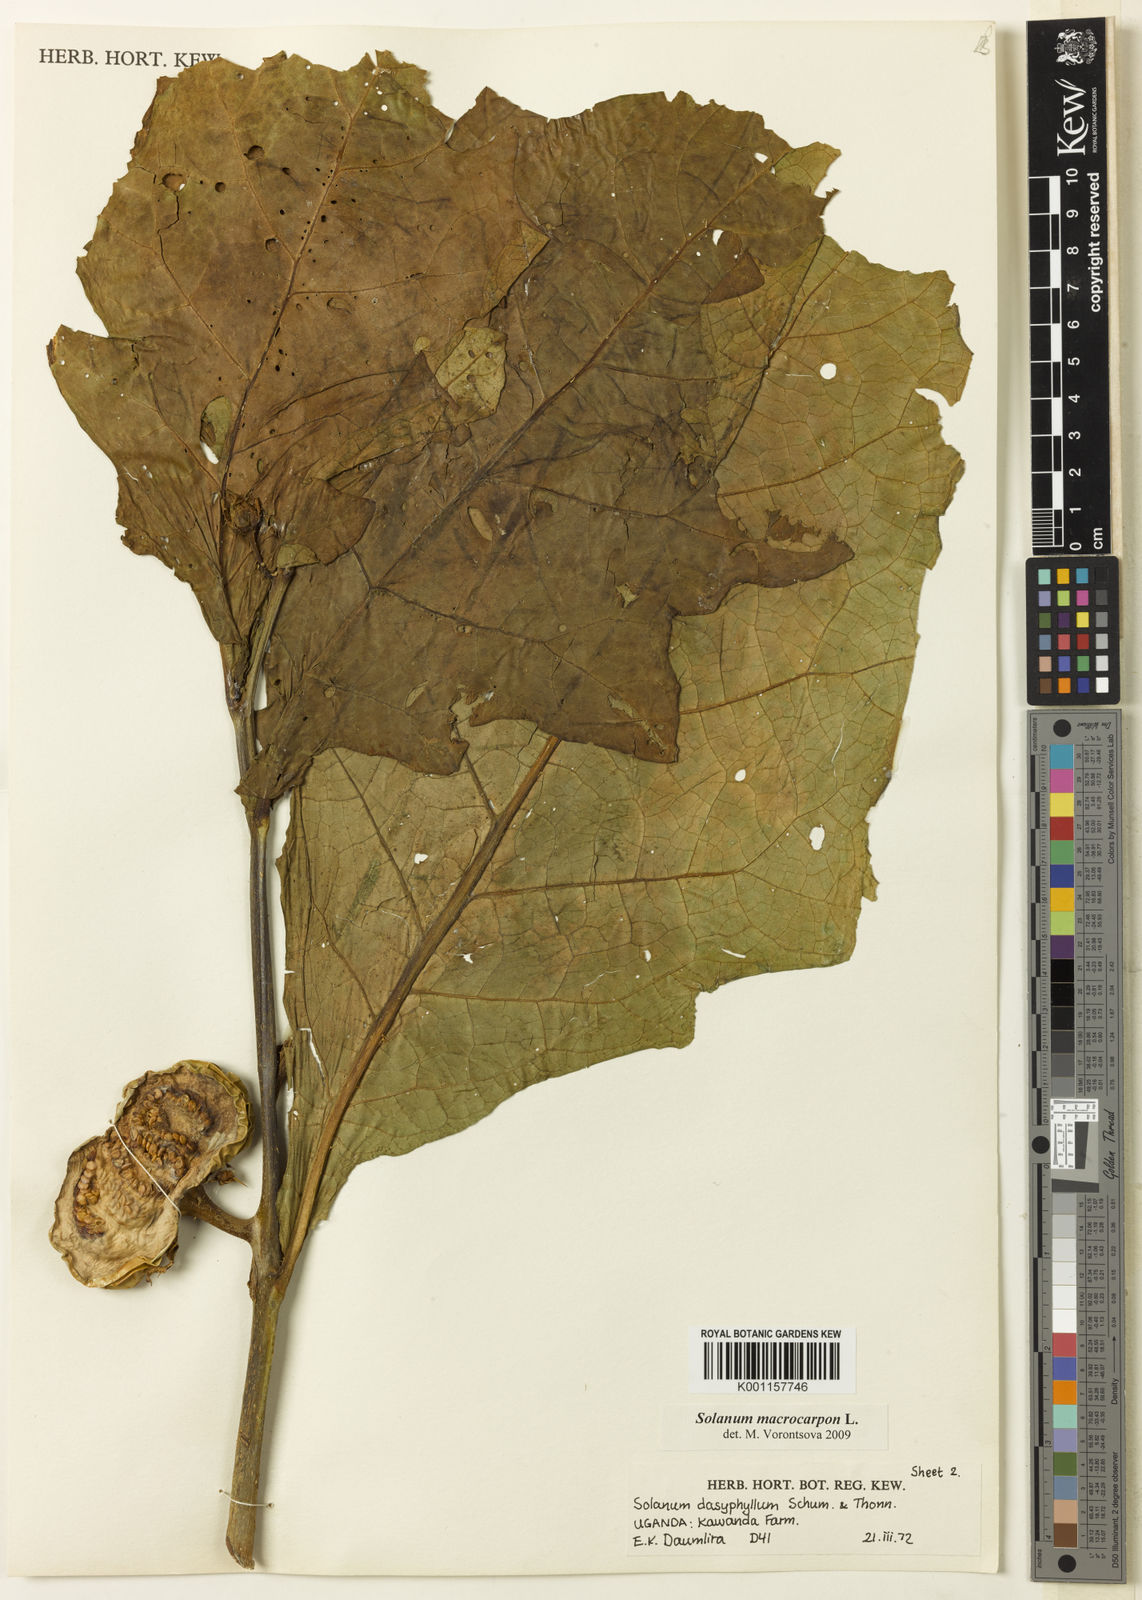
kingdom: Plantae
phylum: Tracheophyta
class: Magnoliopsida
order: Solanales
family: Solanaceae
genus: Solanum
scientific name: Solanum macrocarpon
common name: African eggplant
